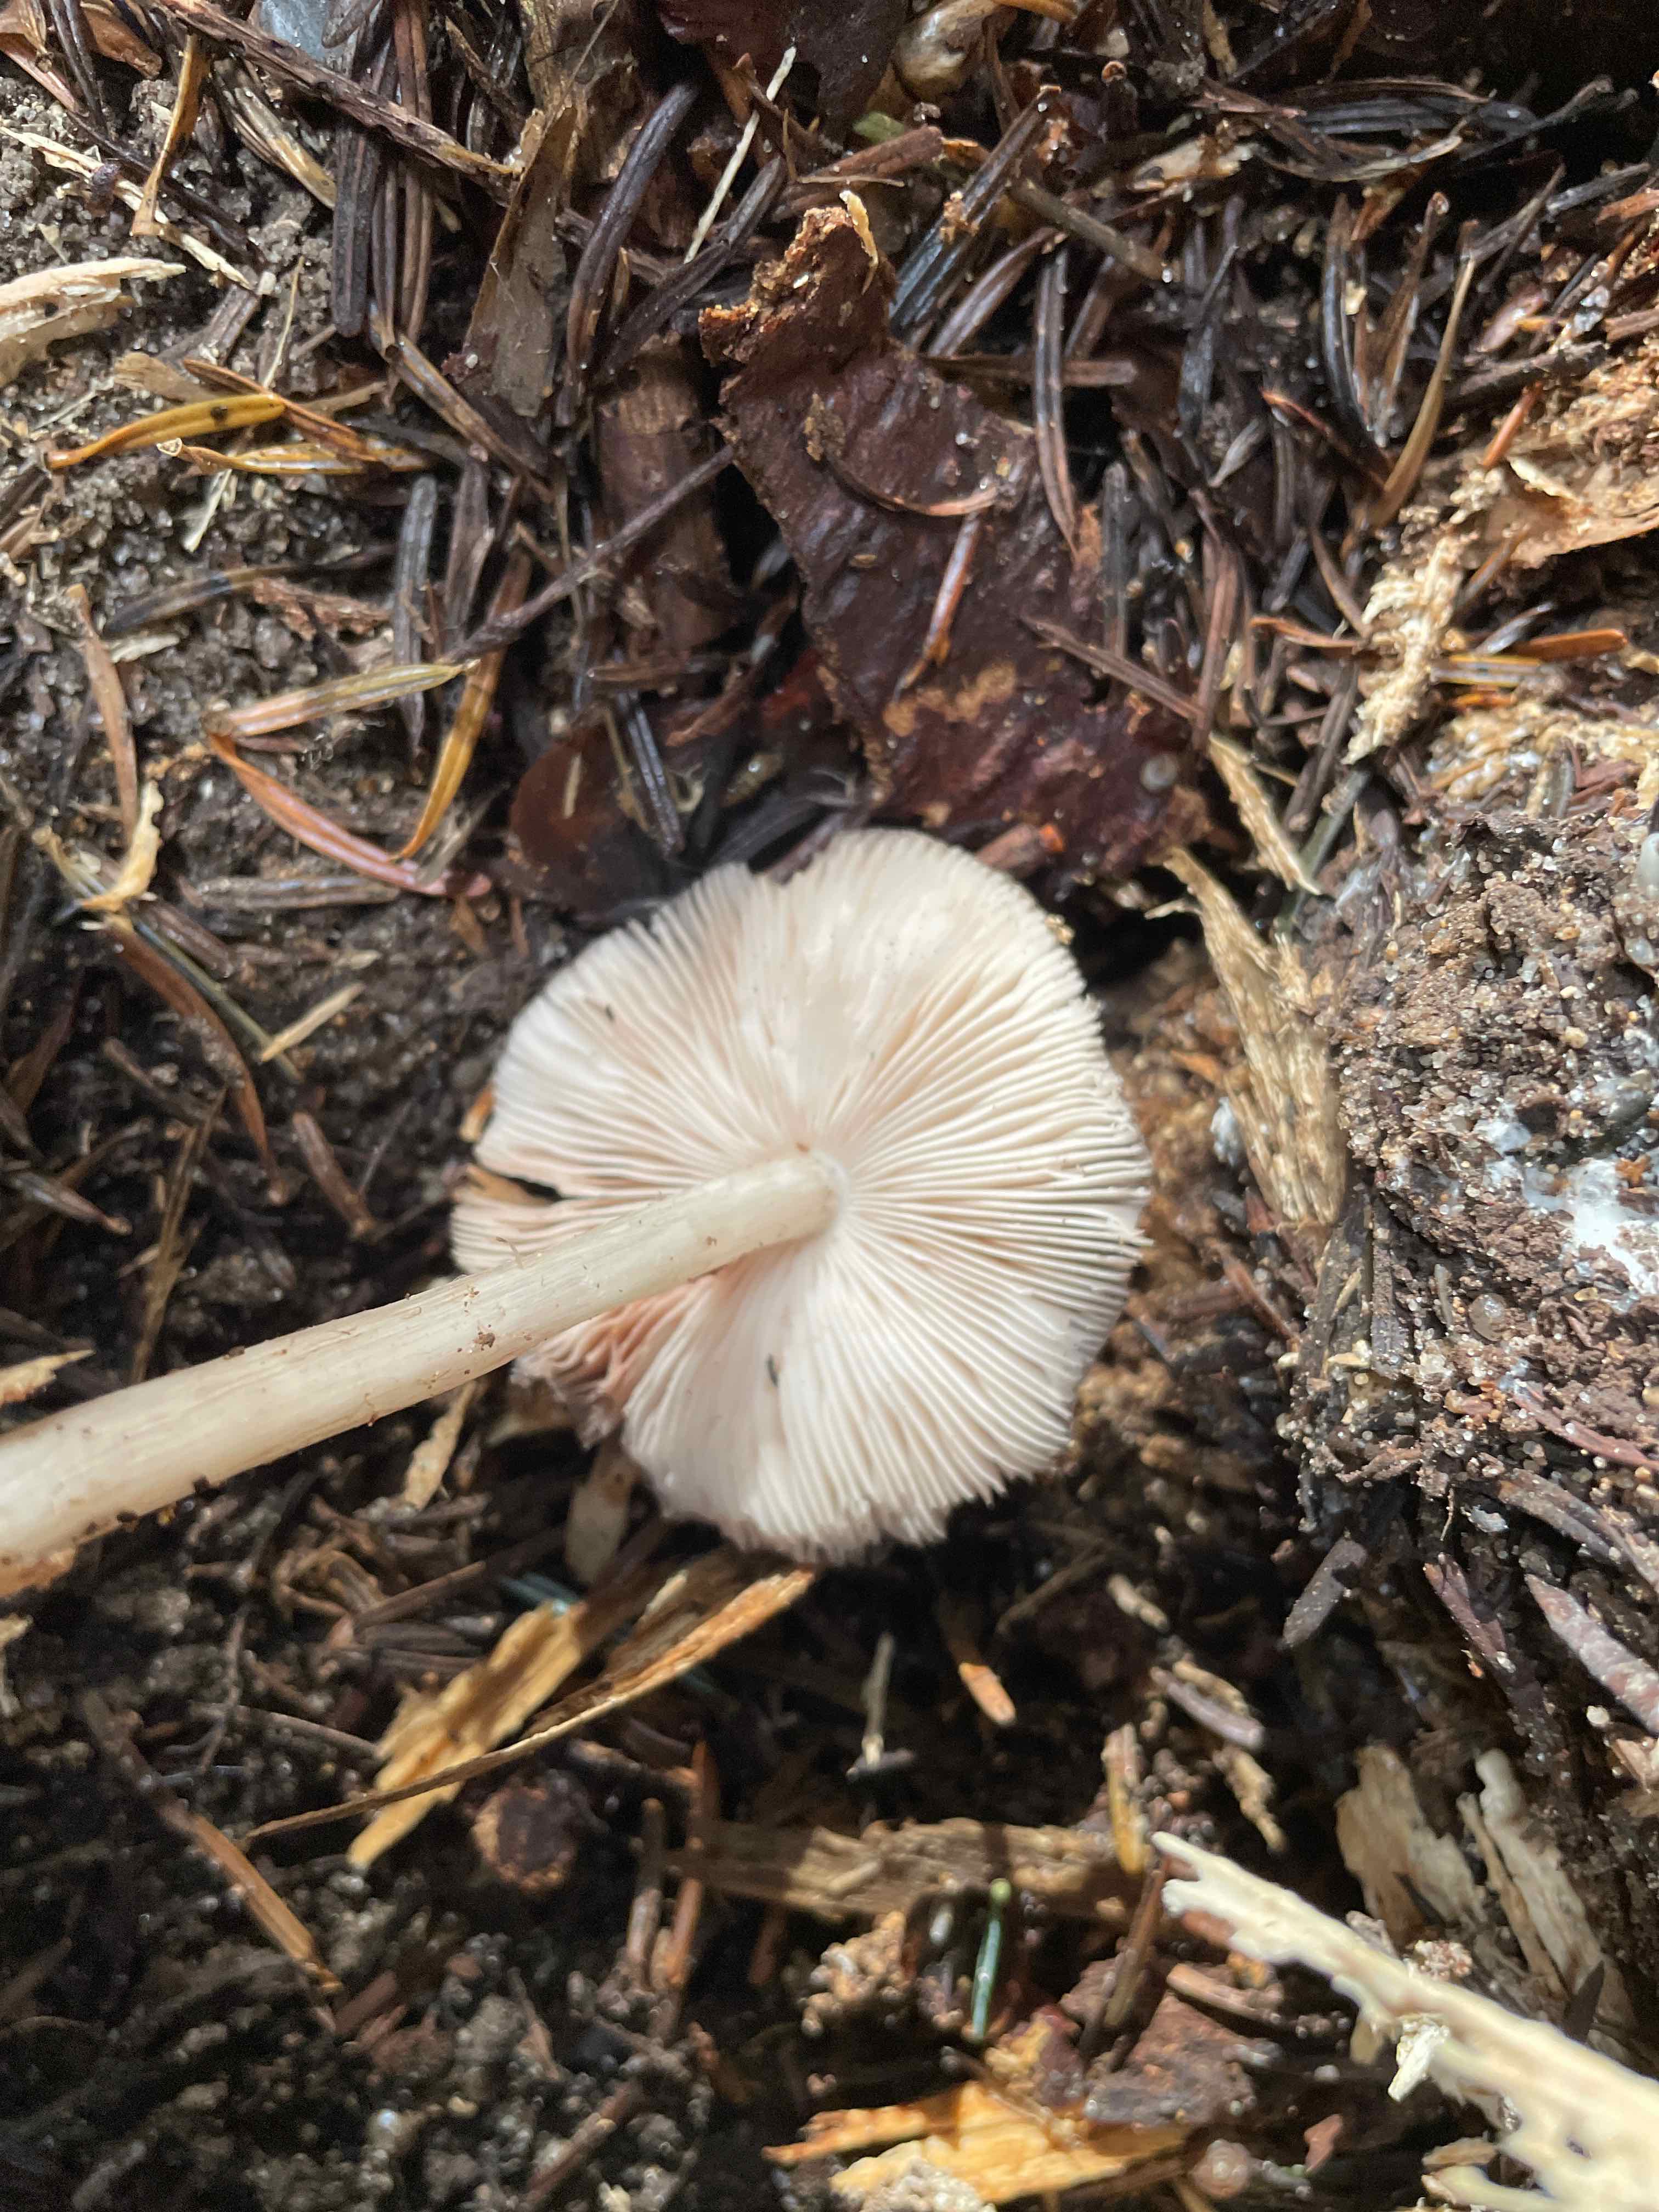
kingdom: Fungi
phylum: Basidiomycota
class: Agaricomycetes
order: Agaricales
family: Pluteaceae
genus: Pluteus
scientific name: Pluteus cervinus
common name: sodfarvet skærmhat
